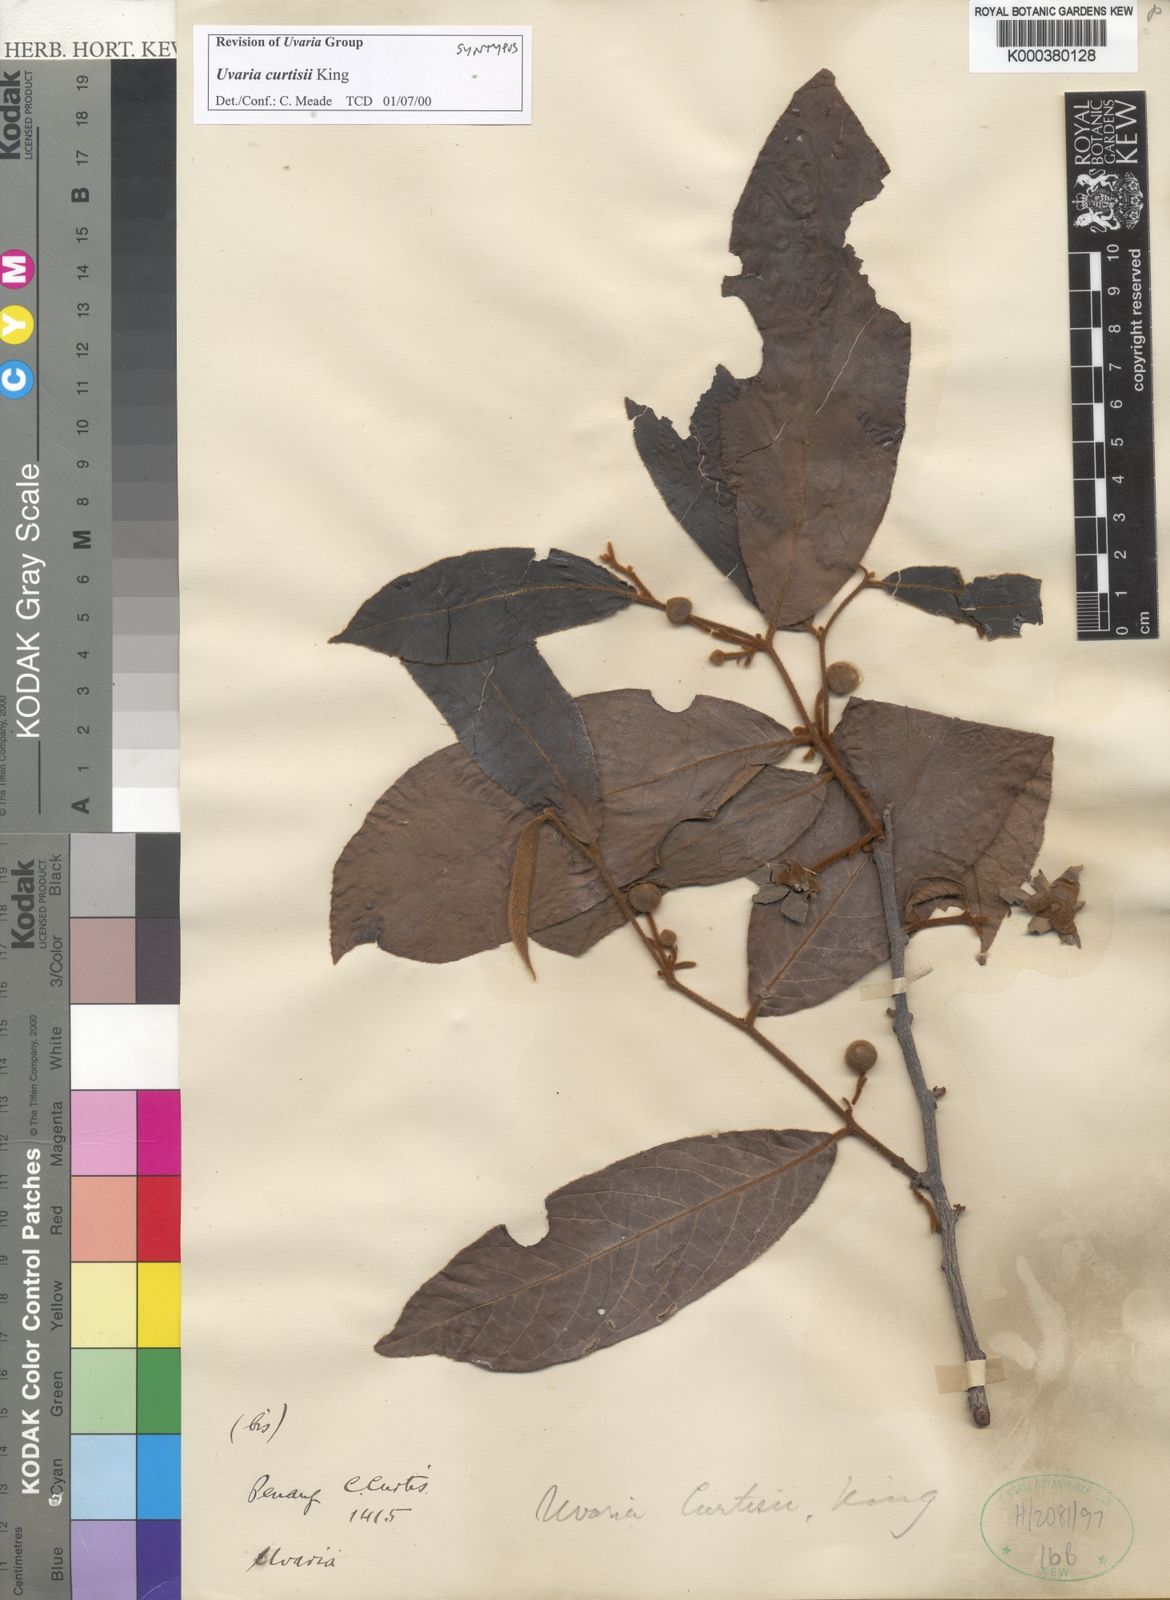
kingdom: Plantae
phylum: Tracheophyta
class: Magnoliopsida
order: Magnoliales
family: Annonaceae
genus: Uvaria
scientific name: Uvaria curtisii
